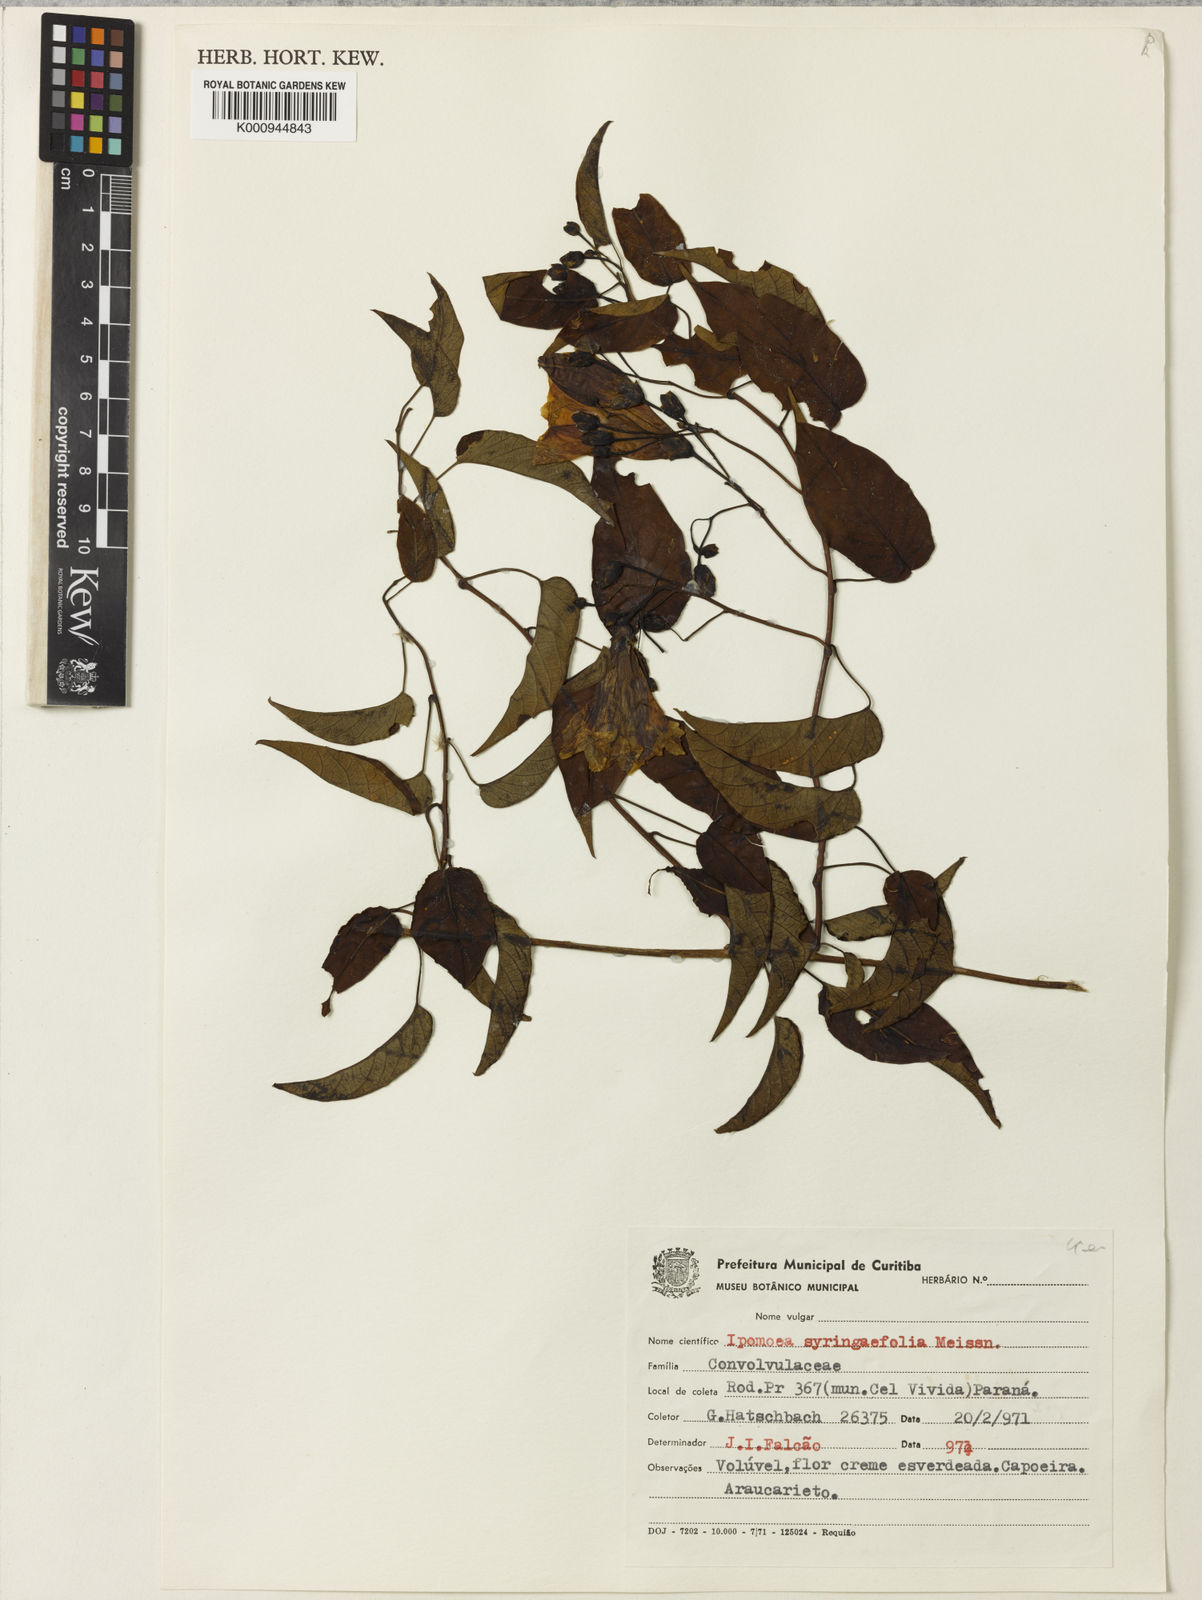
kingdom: Plantae
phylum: Tracheophyta
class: Magnoliopsida
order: Solanales
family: Convolvulaceae
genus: Ipomoea
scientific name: Ipomoea
